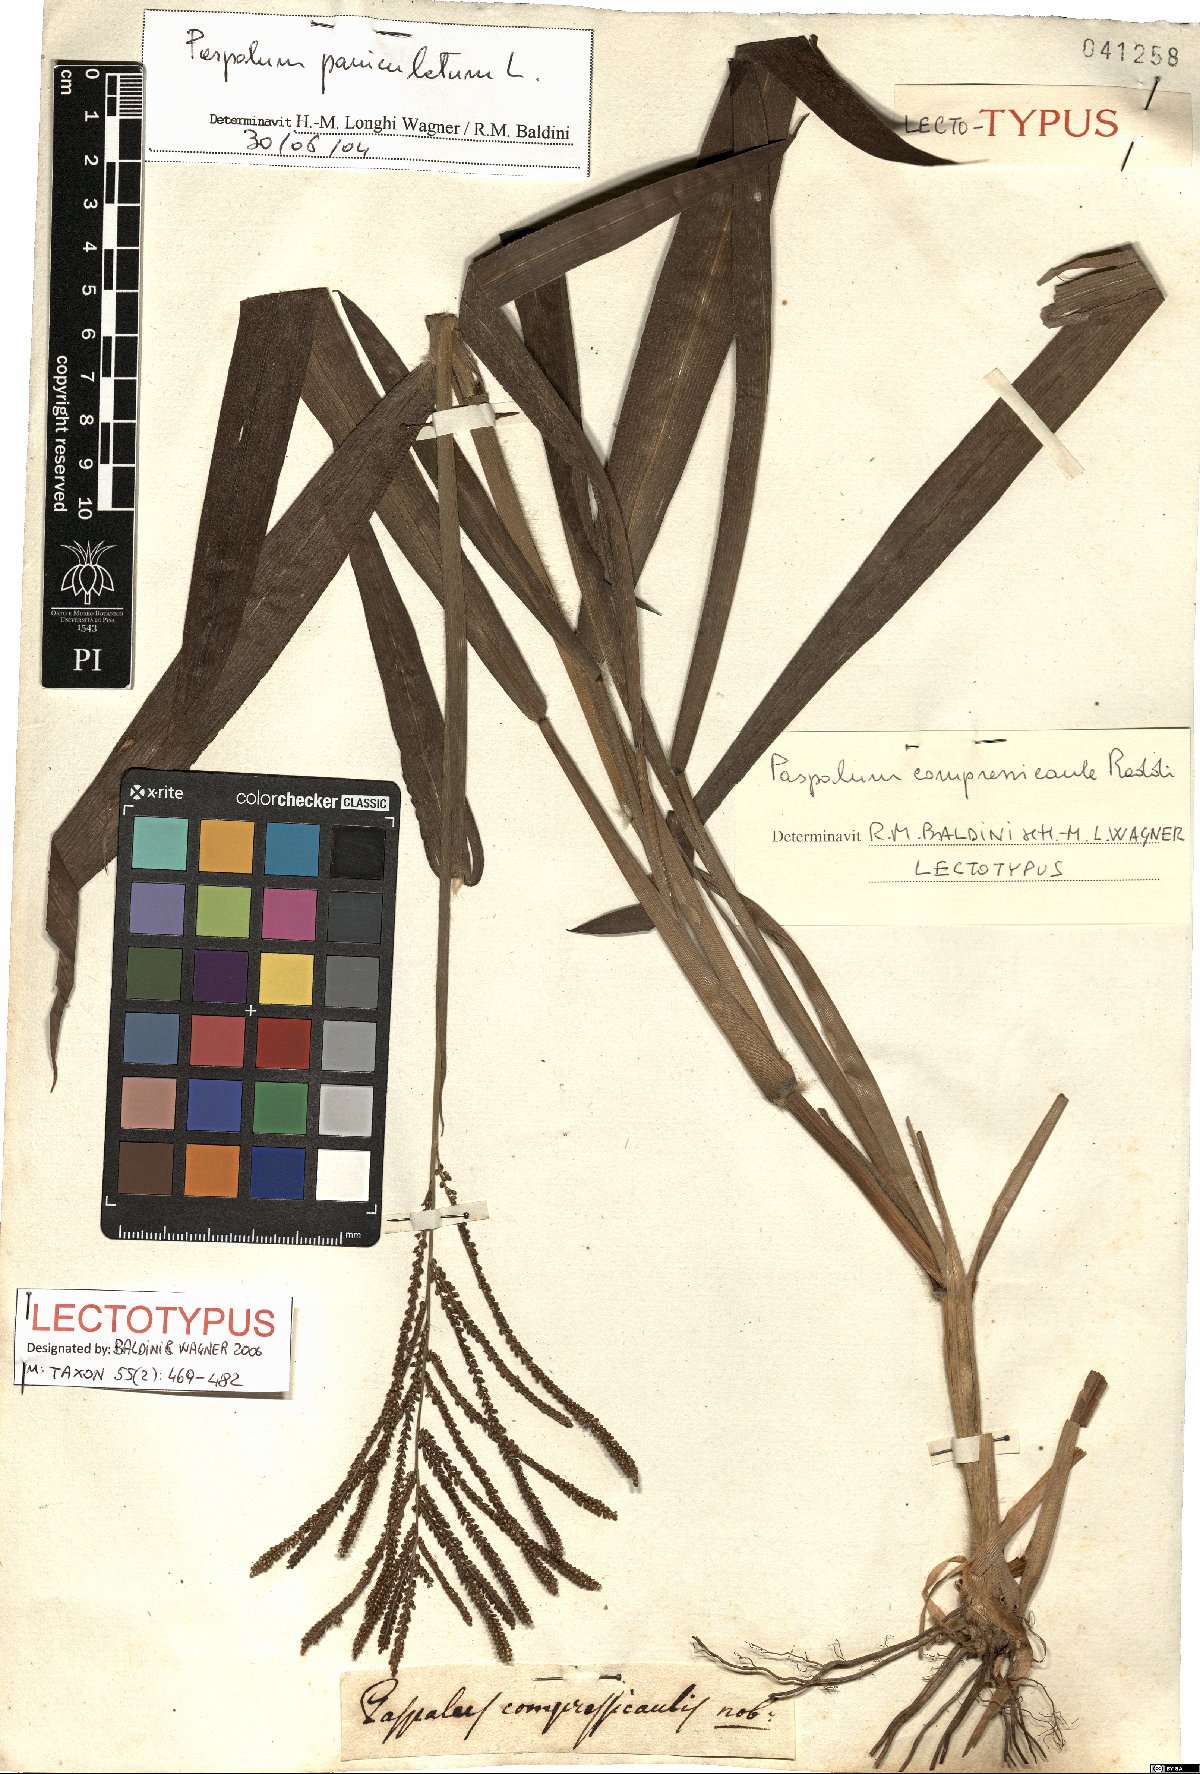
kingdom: Plantae
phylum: Tracheophyta
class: Liliopsida
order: Poales
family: Poaceae
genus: Paspalum
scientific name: Paspalum paniculatum
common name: Arrocillo
